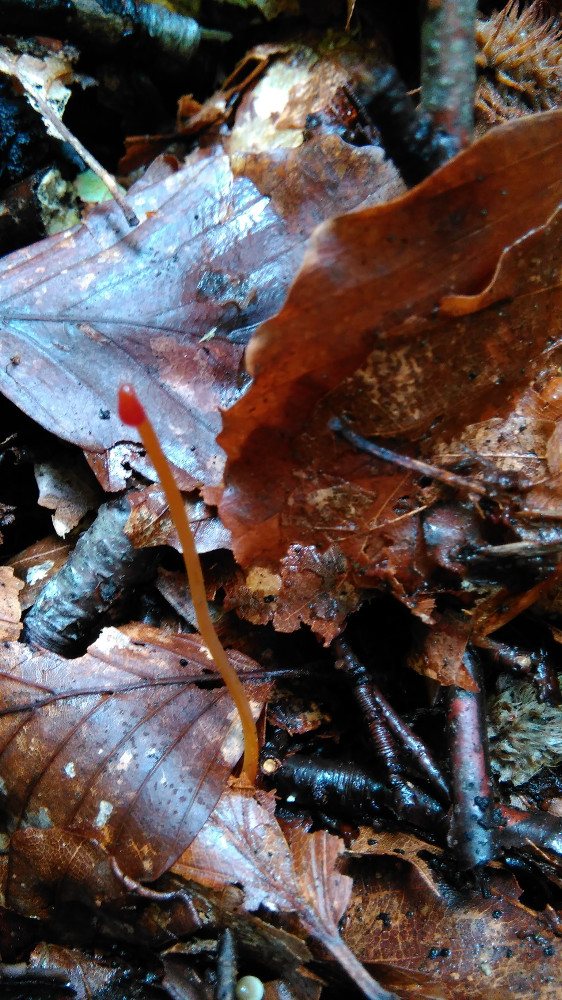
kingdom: Fungi
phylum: Basidiomycota
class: Agaricomycetes
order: Agaricales
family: Mycenaceae
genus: Mycena
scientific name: Mycena crocata
